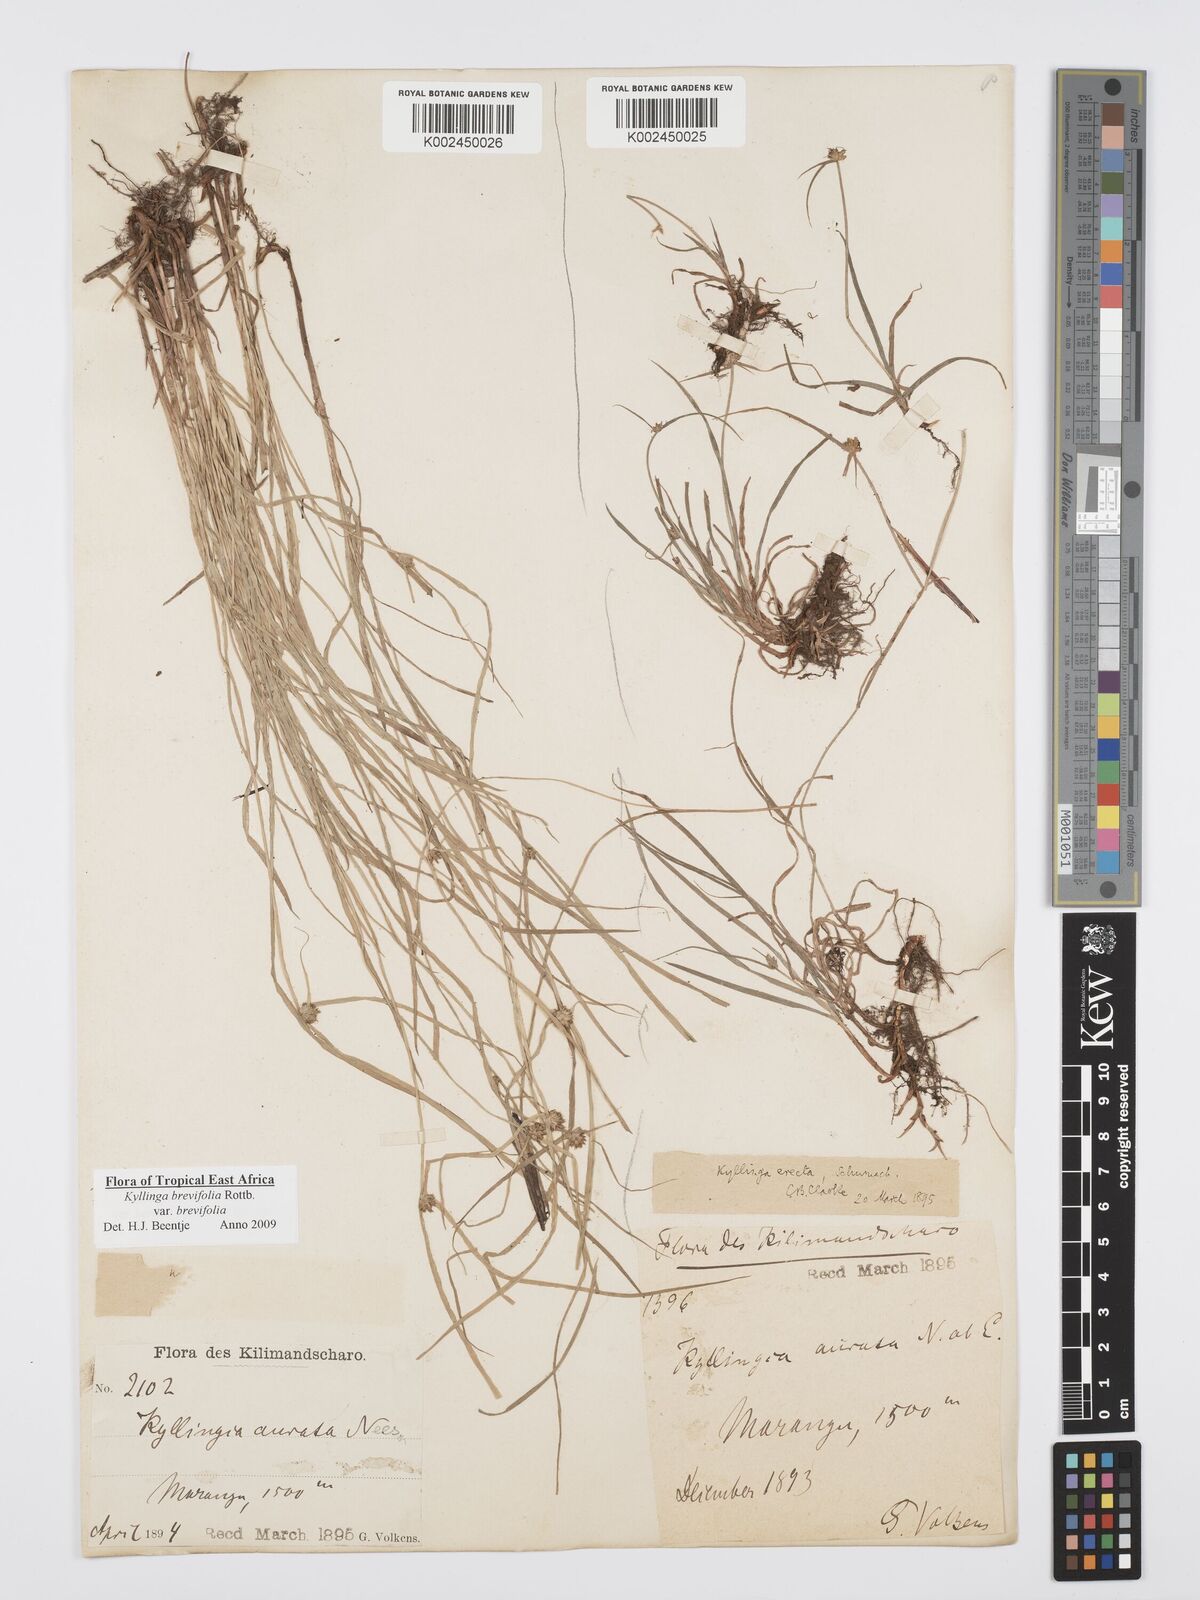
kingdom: Plantae
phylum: Tracheophyta
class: Liliopsida
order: Poales
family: Cyperaceae
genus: Cyperus
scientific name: Cyperus brevifolius
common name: Globe kyllinga
